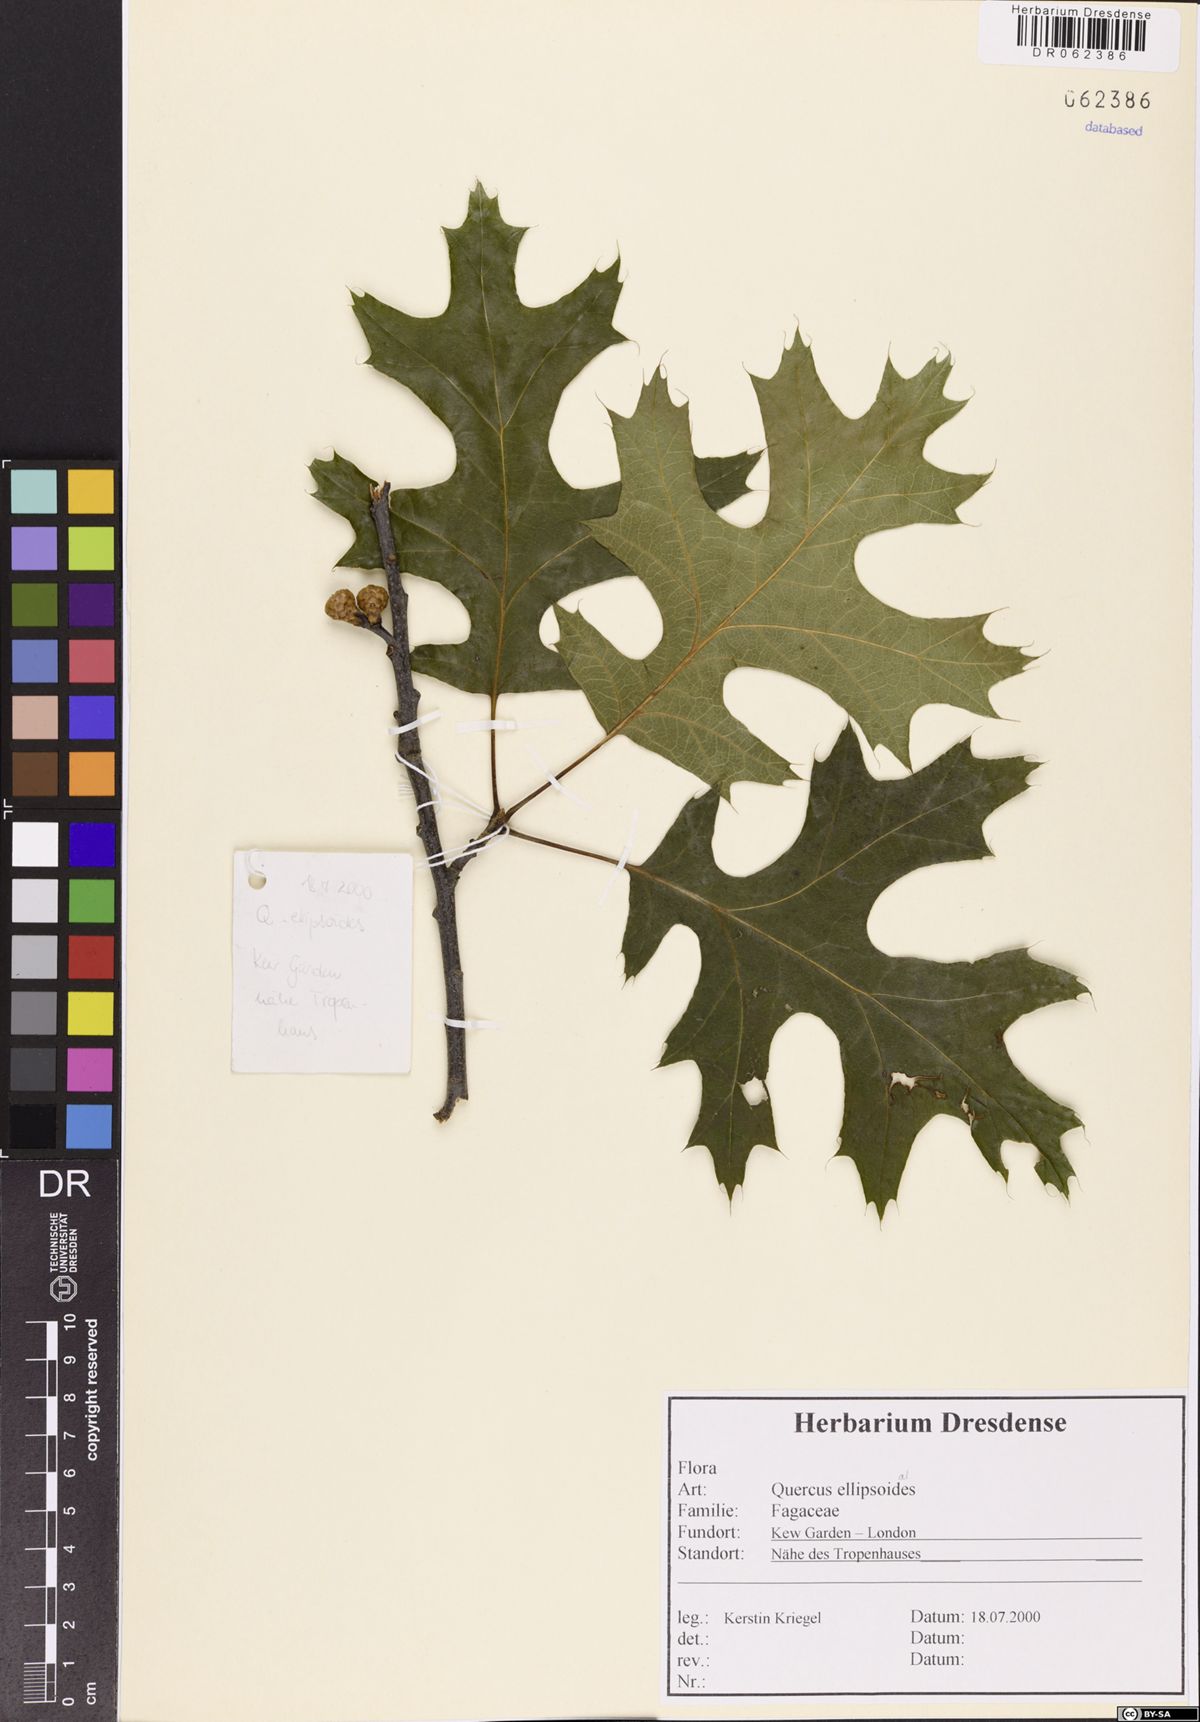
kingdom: Plantae
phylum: Tracheophyta
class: Magnoliopsida
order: Fagales
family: Fagaceae
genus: Quercus
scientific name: Quercus ellipsoidalis
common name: Hill's oak
